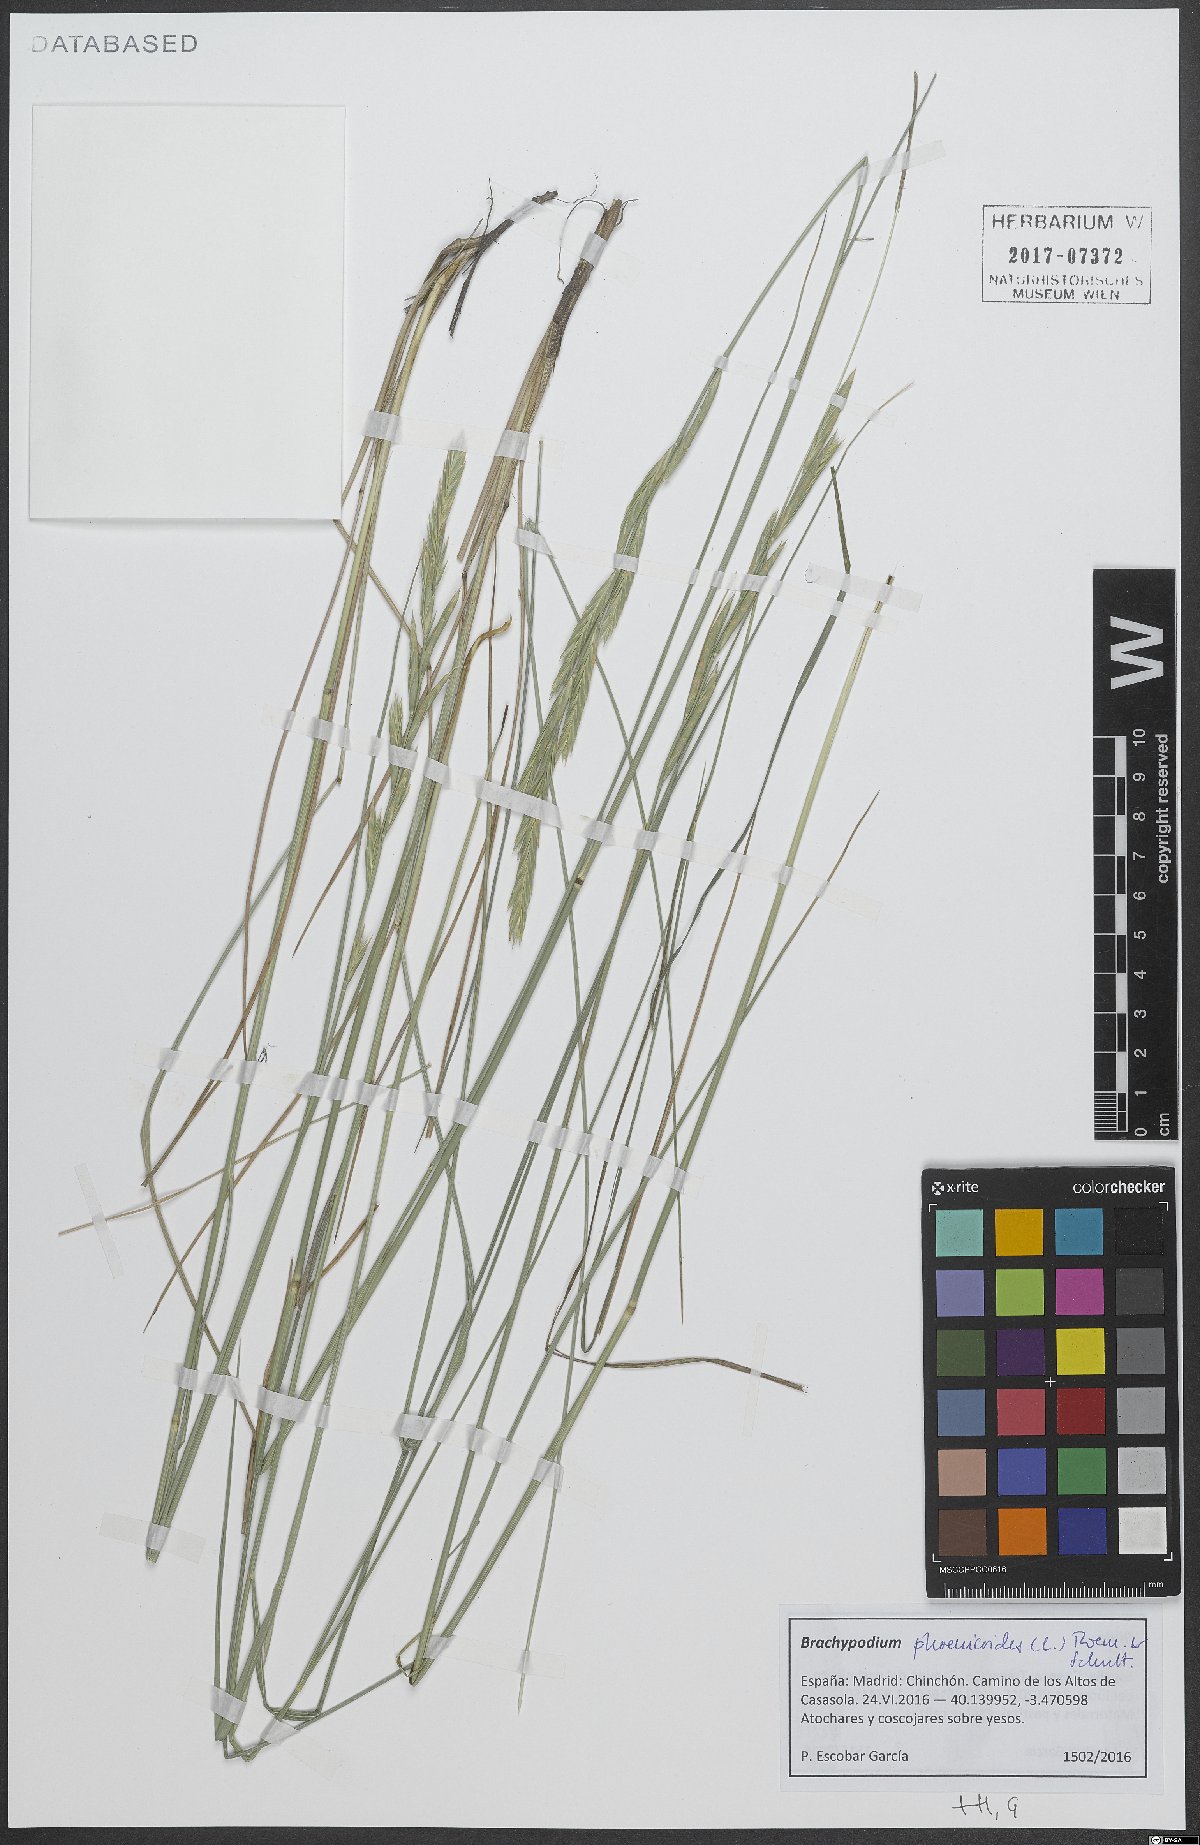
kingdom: Plantae
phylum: Tracheophyta
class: Liliopsida
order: Poales
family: Poaceae
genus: Brachypodium
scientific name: Brachypodium phoenicoides
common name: Thinleaf false brome
